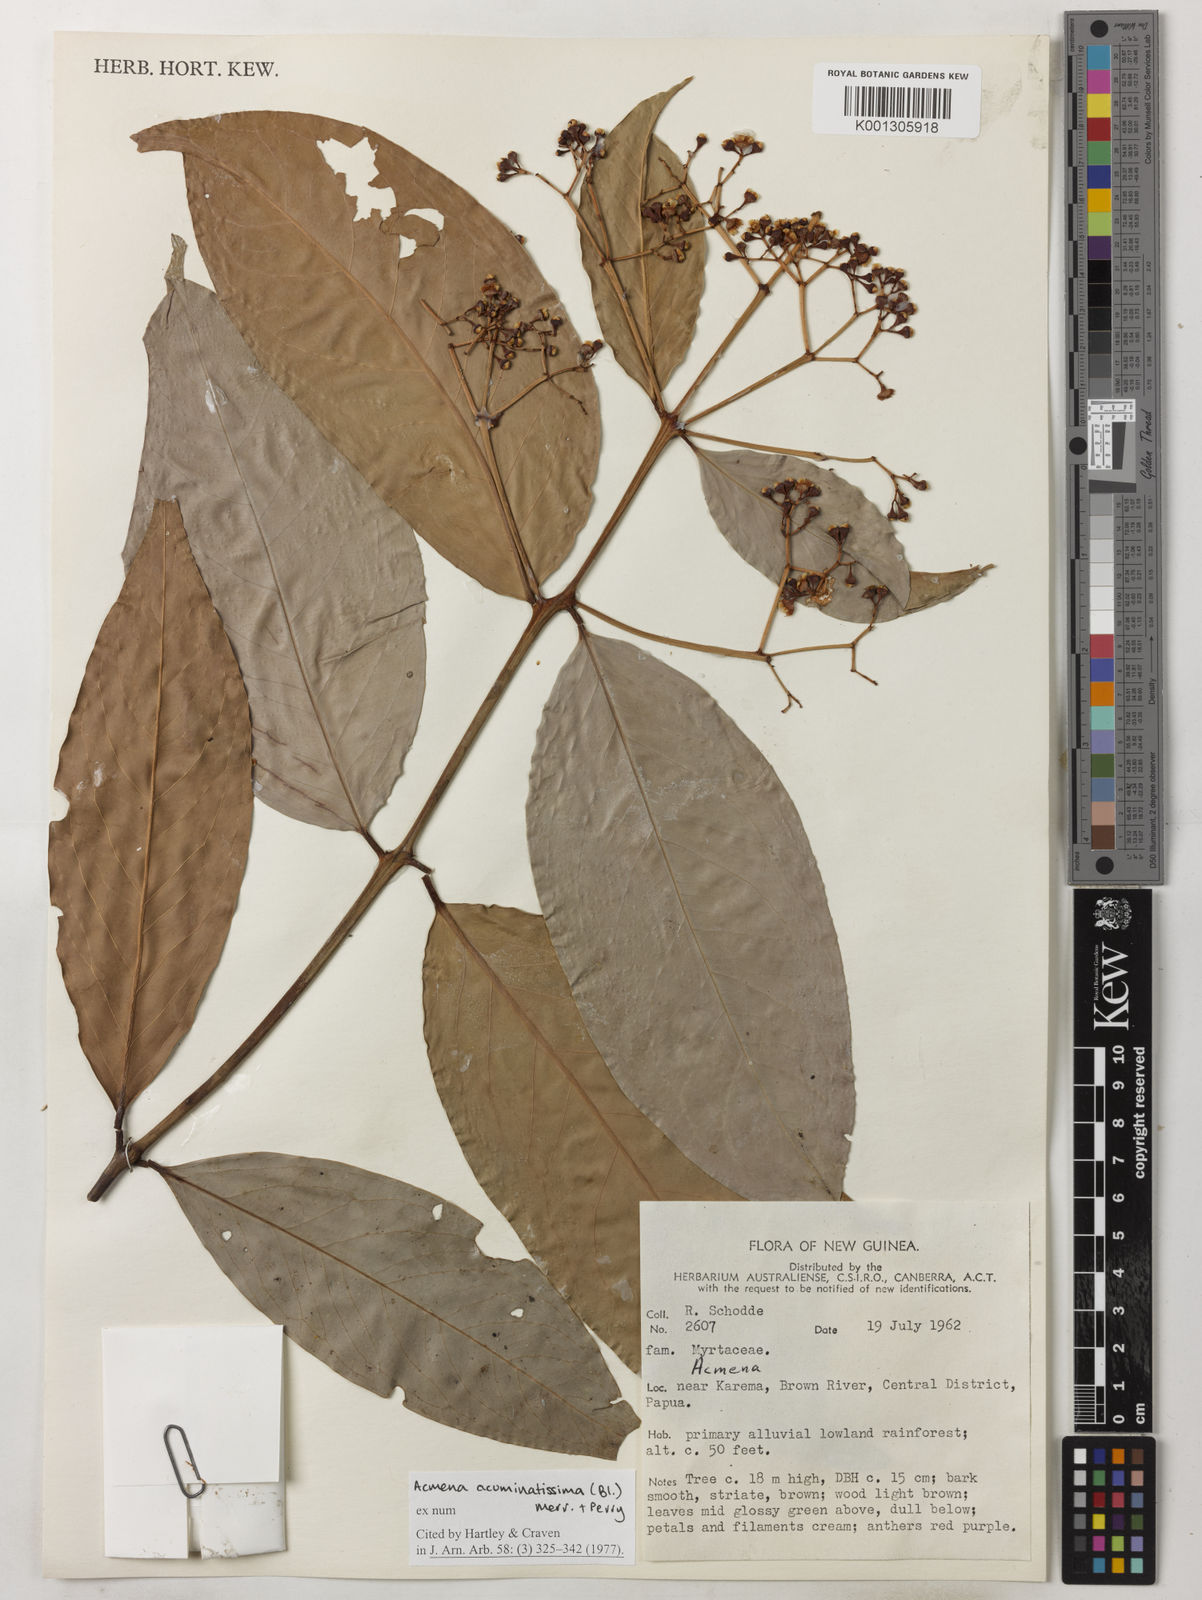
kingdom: Plantae
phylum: Tracheophyta
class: Magnoliopsida
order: Myrtales
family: Myrtaceae
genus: Syzygium
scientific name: Syzygium acuminatissimum
